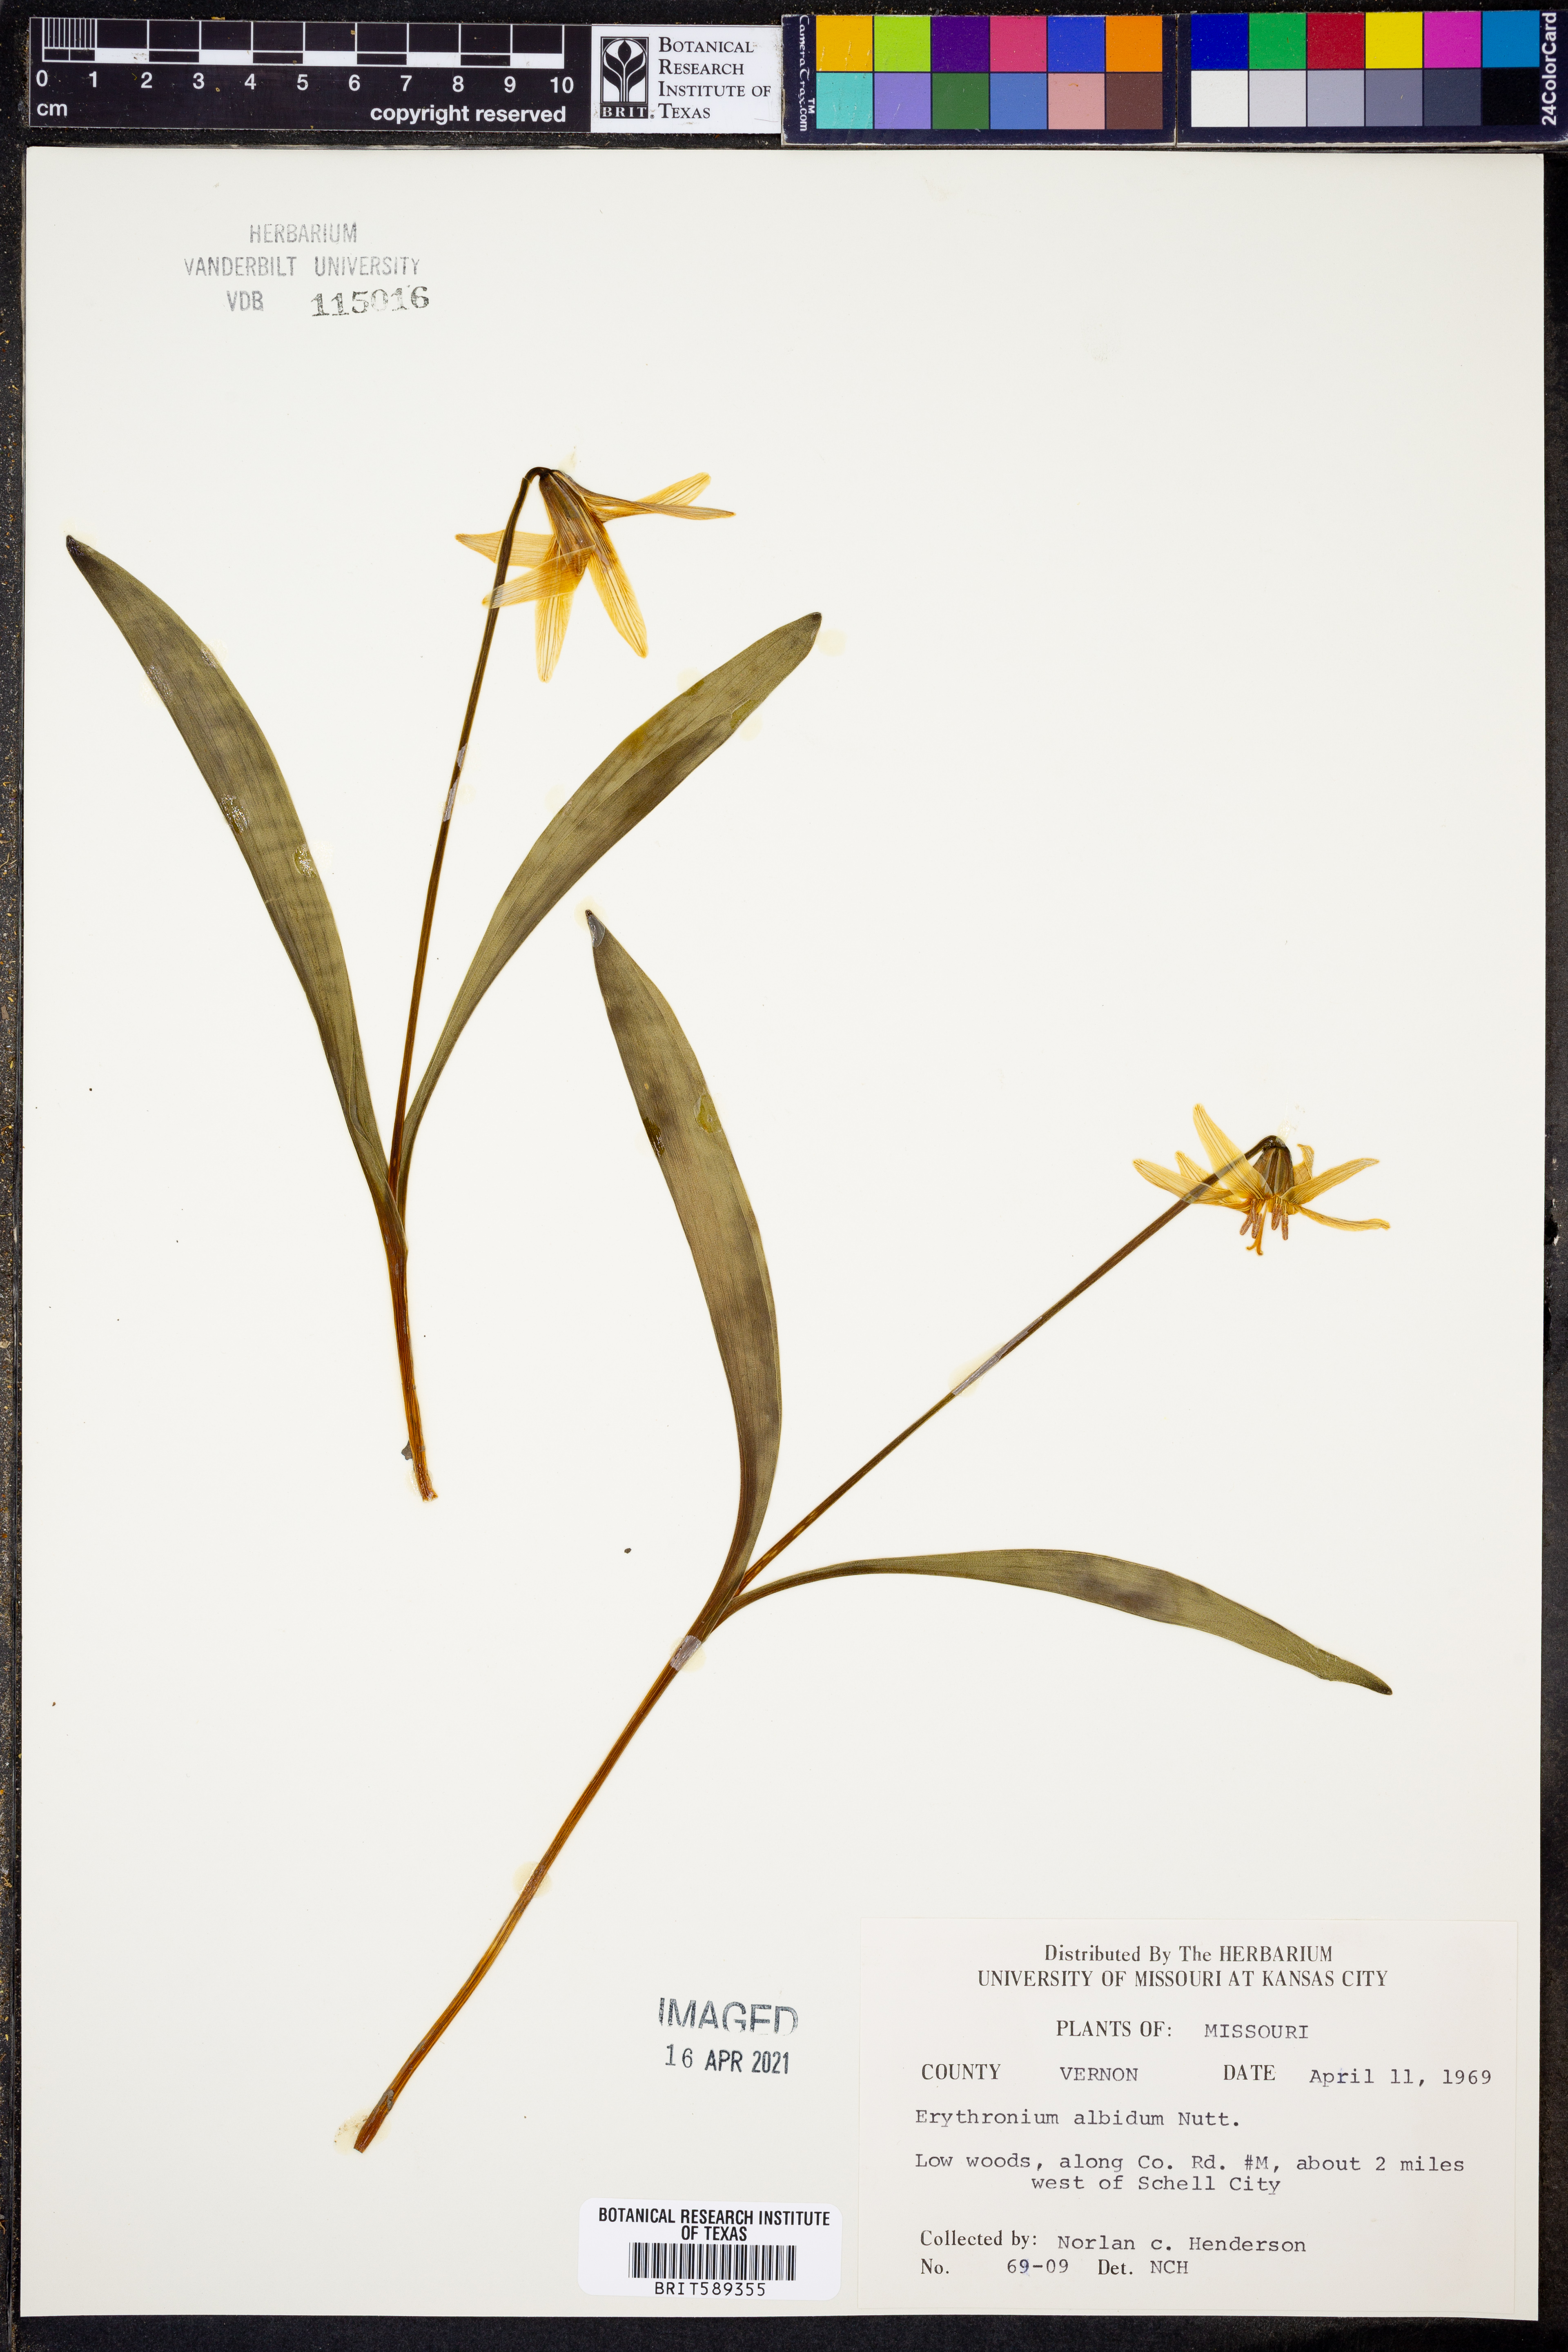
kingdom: Plantae
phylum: Tracheophyta
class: Liliopsida
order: Liliales
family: Liliaceae
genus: Erythronium
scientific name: Erythronium albidum
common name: White trout-lily
